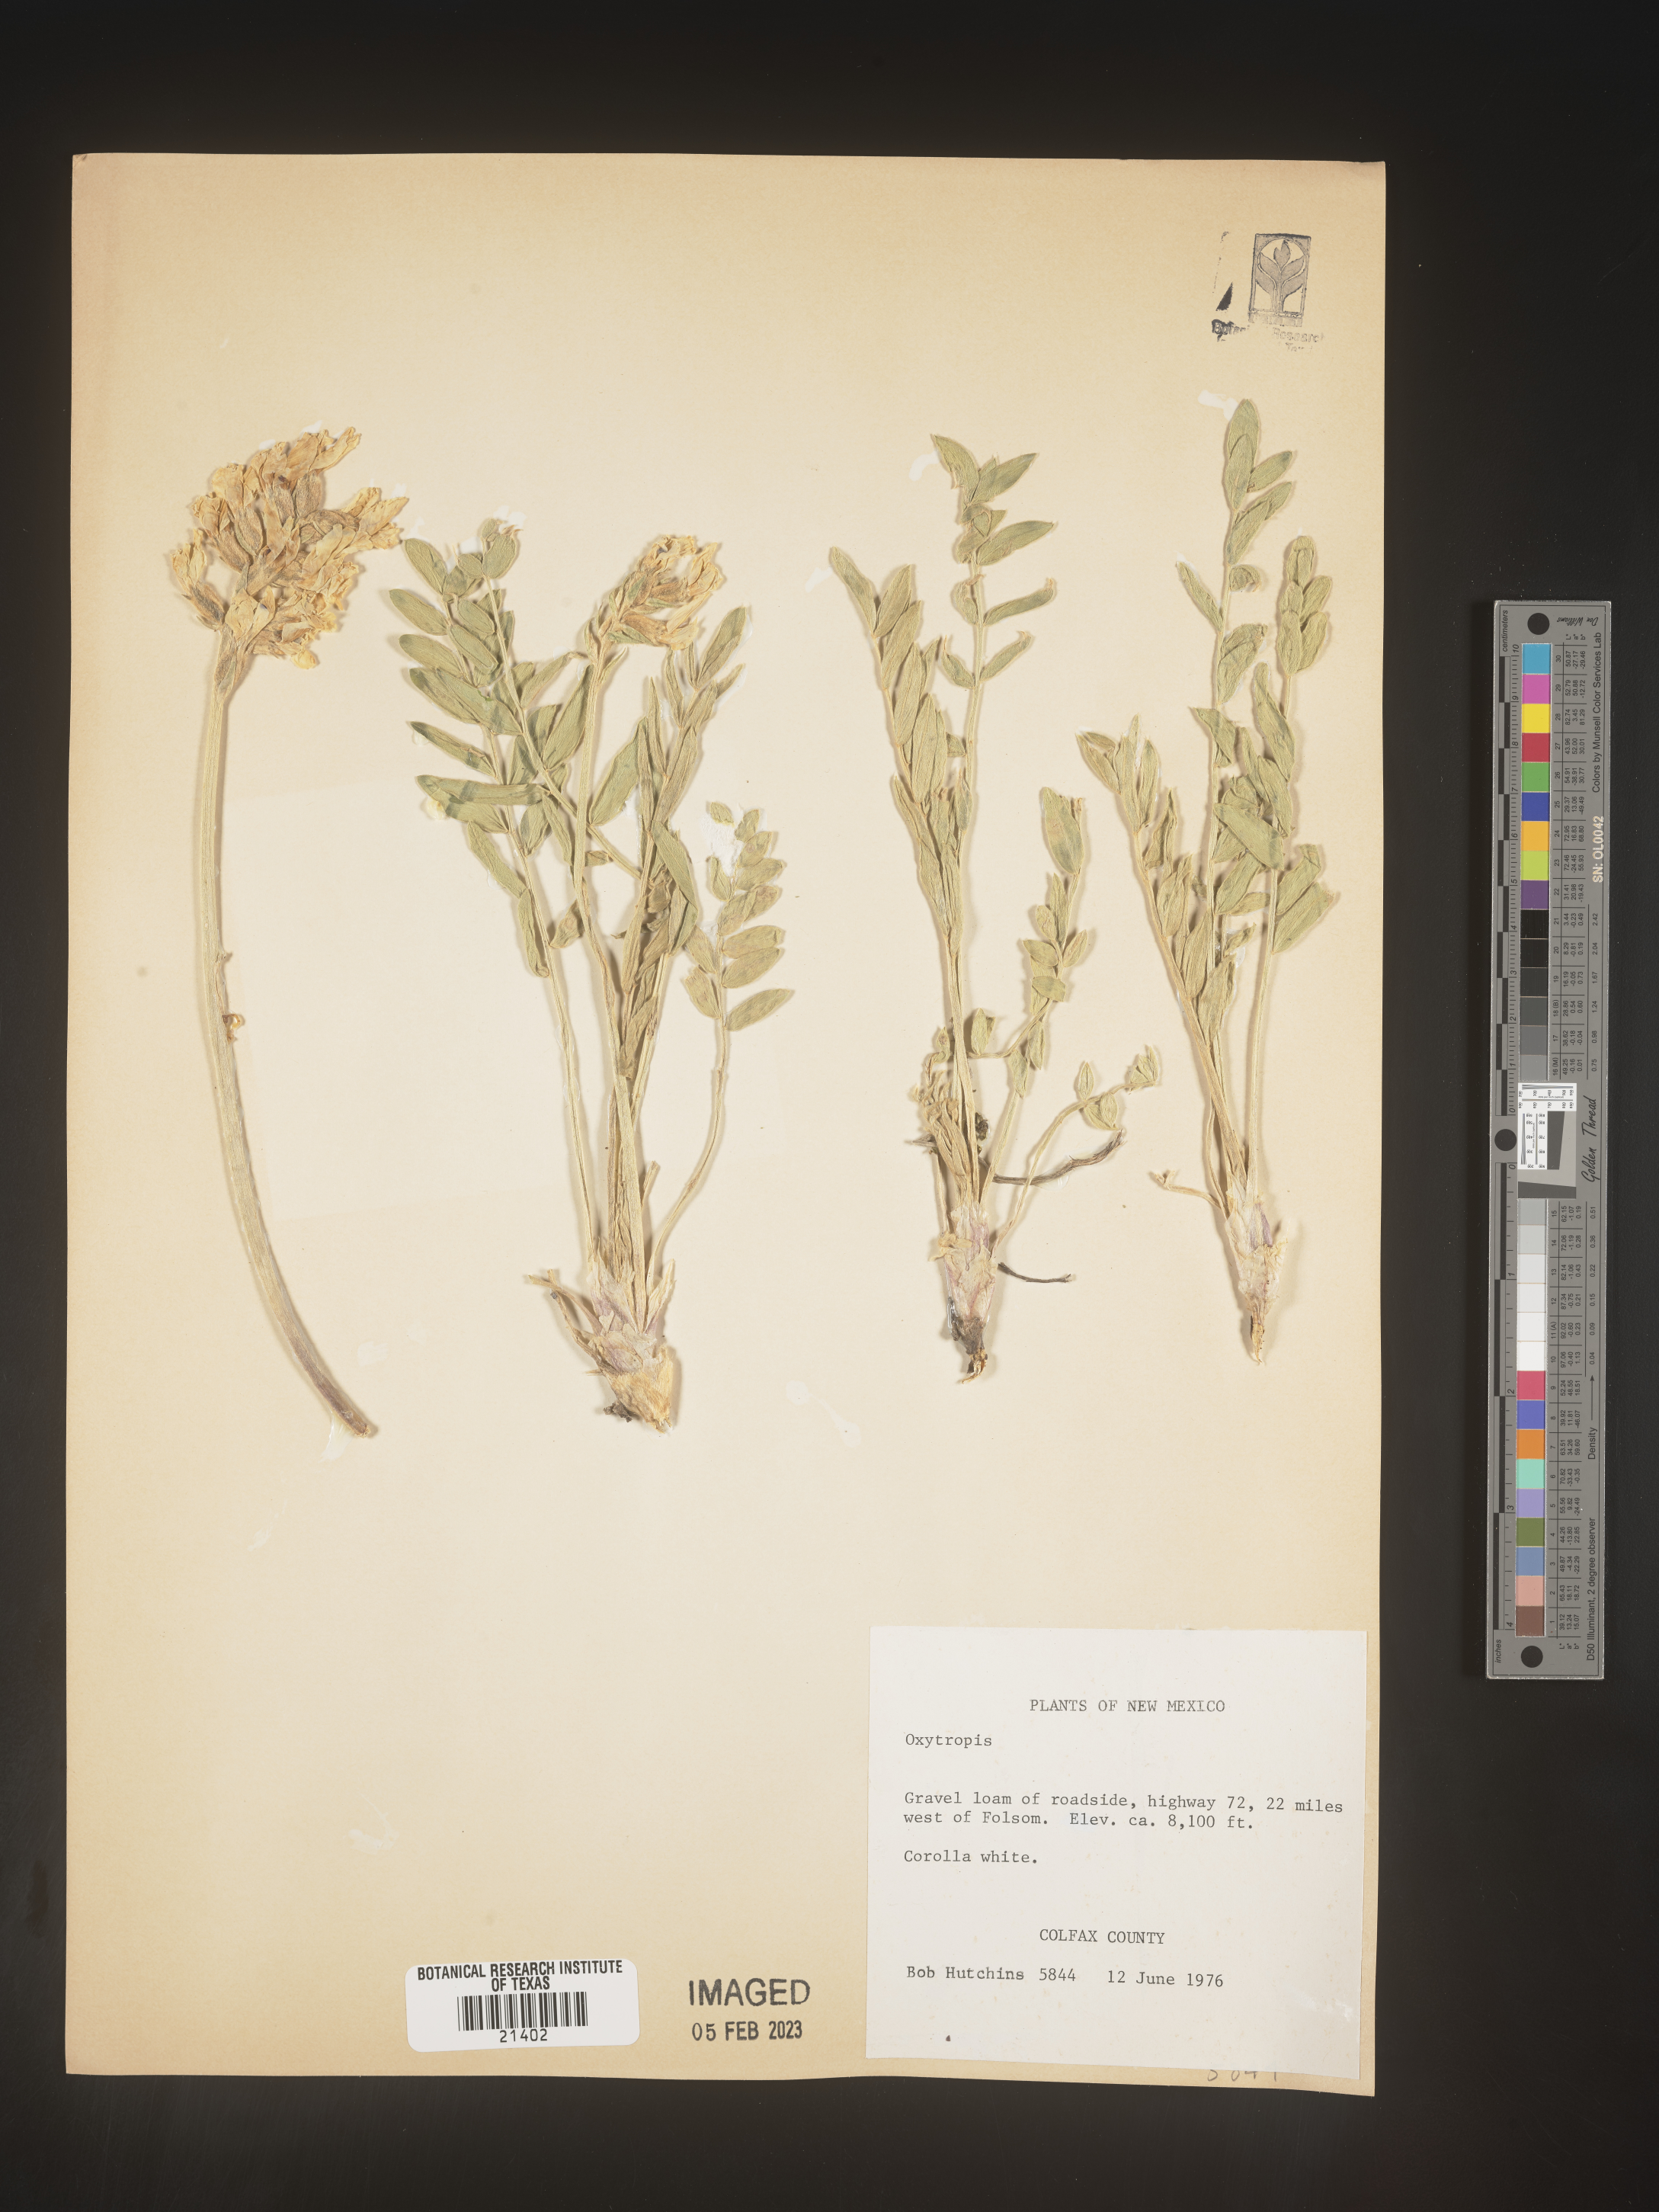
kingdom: Plantae
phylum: Tracheophyta
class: Magnoliopsida
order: Fabales
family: Fabaceae
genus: Oxytropis
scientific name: Oxytropis
